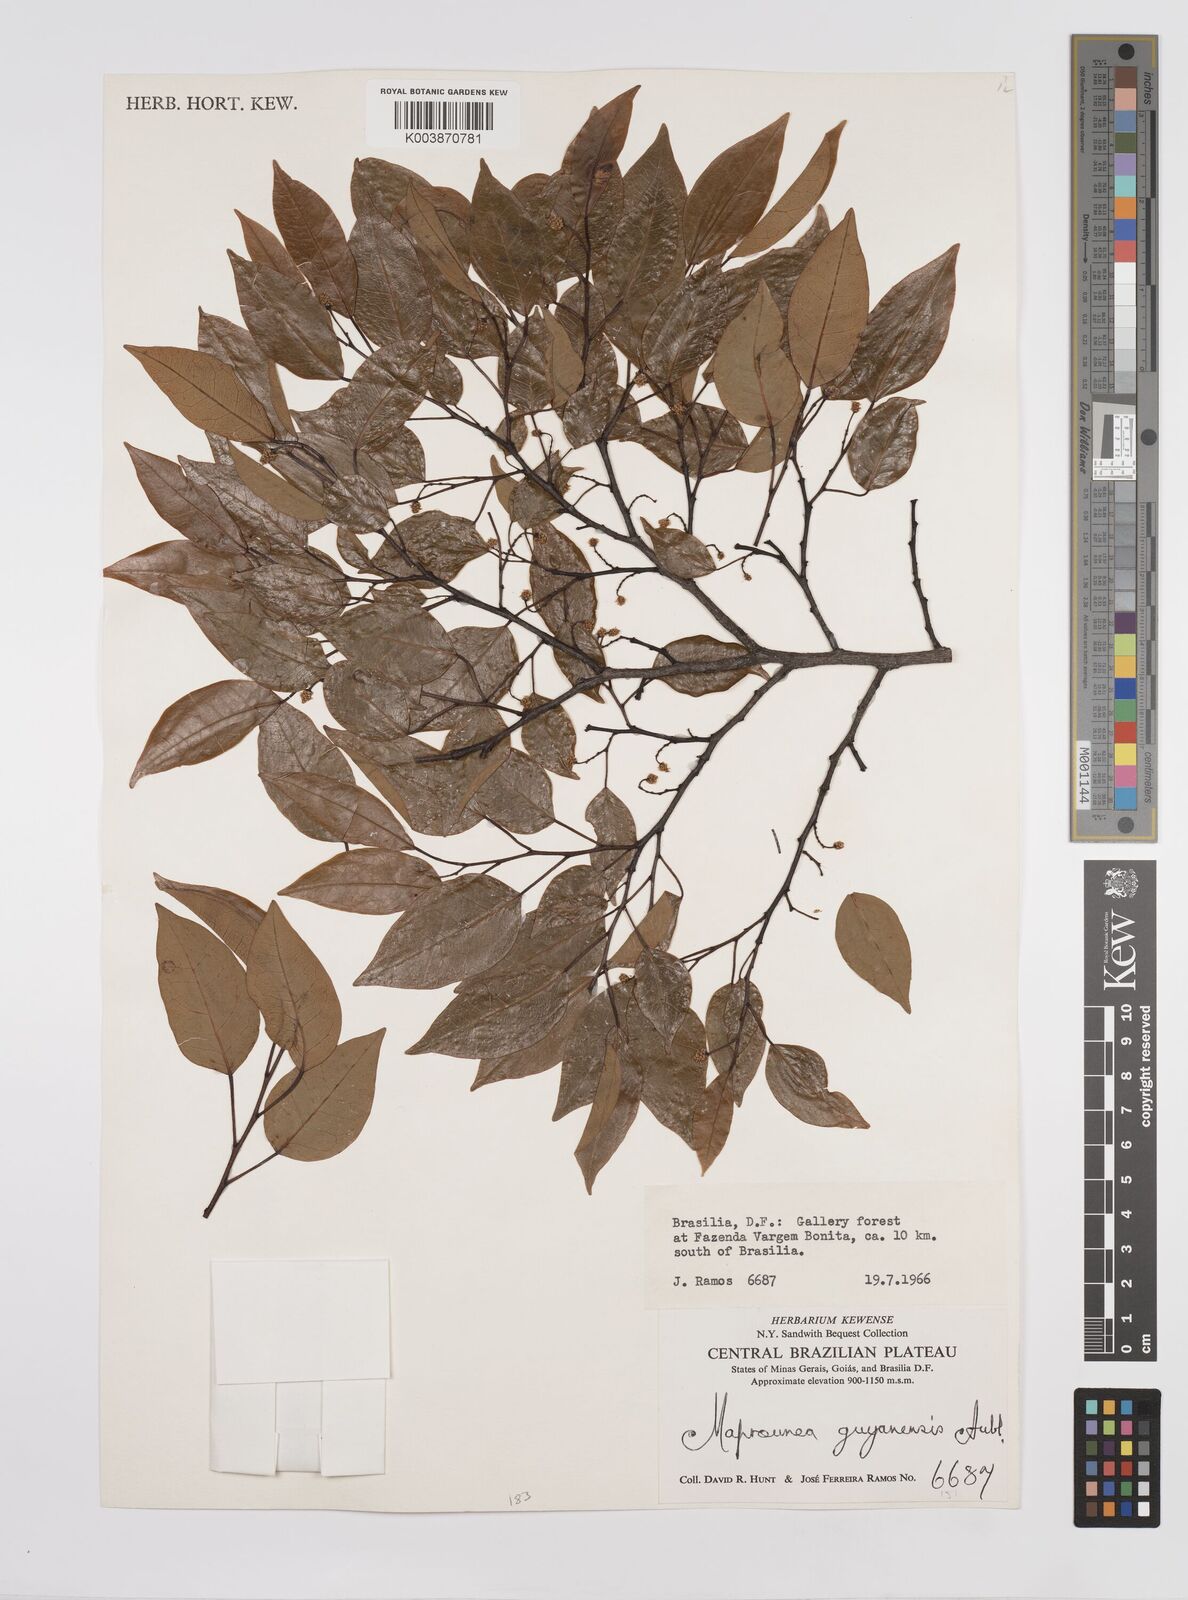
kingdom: Plantae
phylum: Tracheophyta
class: Magnoliopsida
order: Malpighiales
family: Euphorbiaceae
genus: Maprounea
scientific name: Maprounea guianensis
